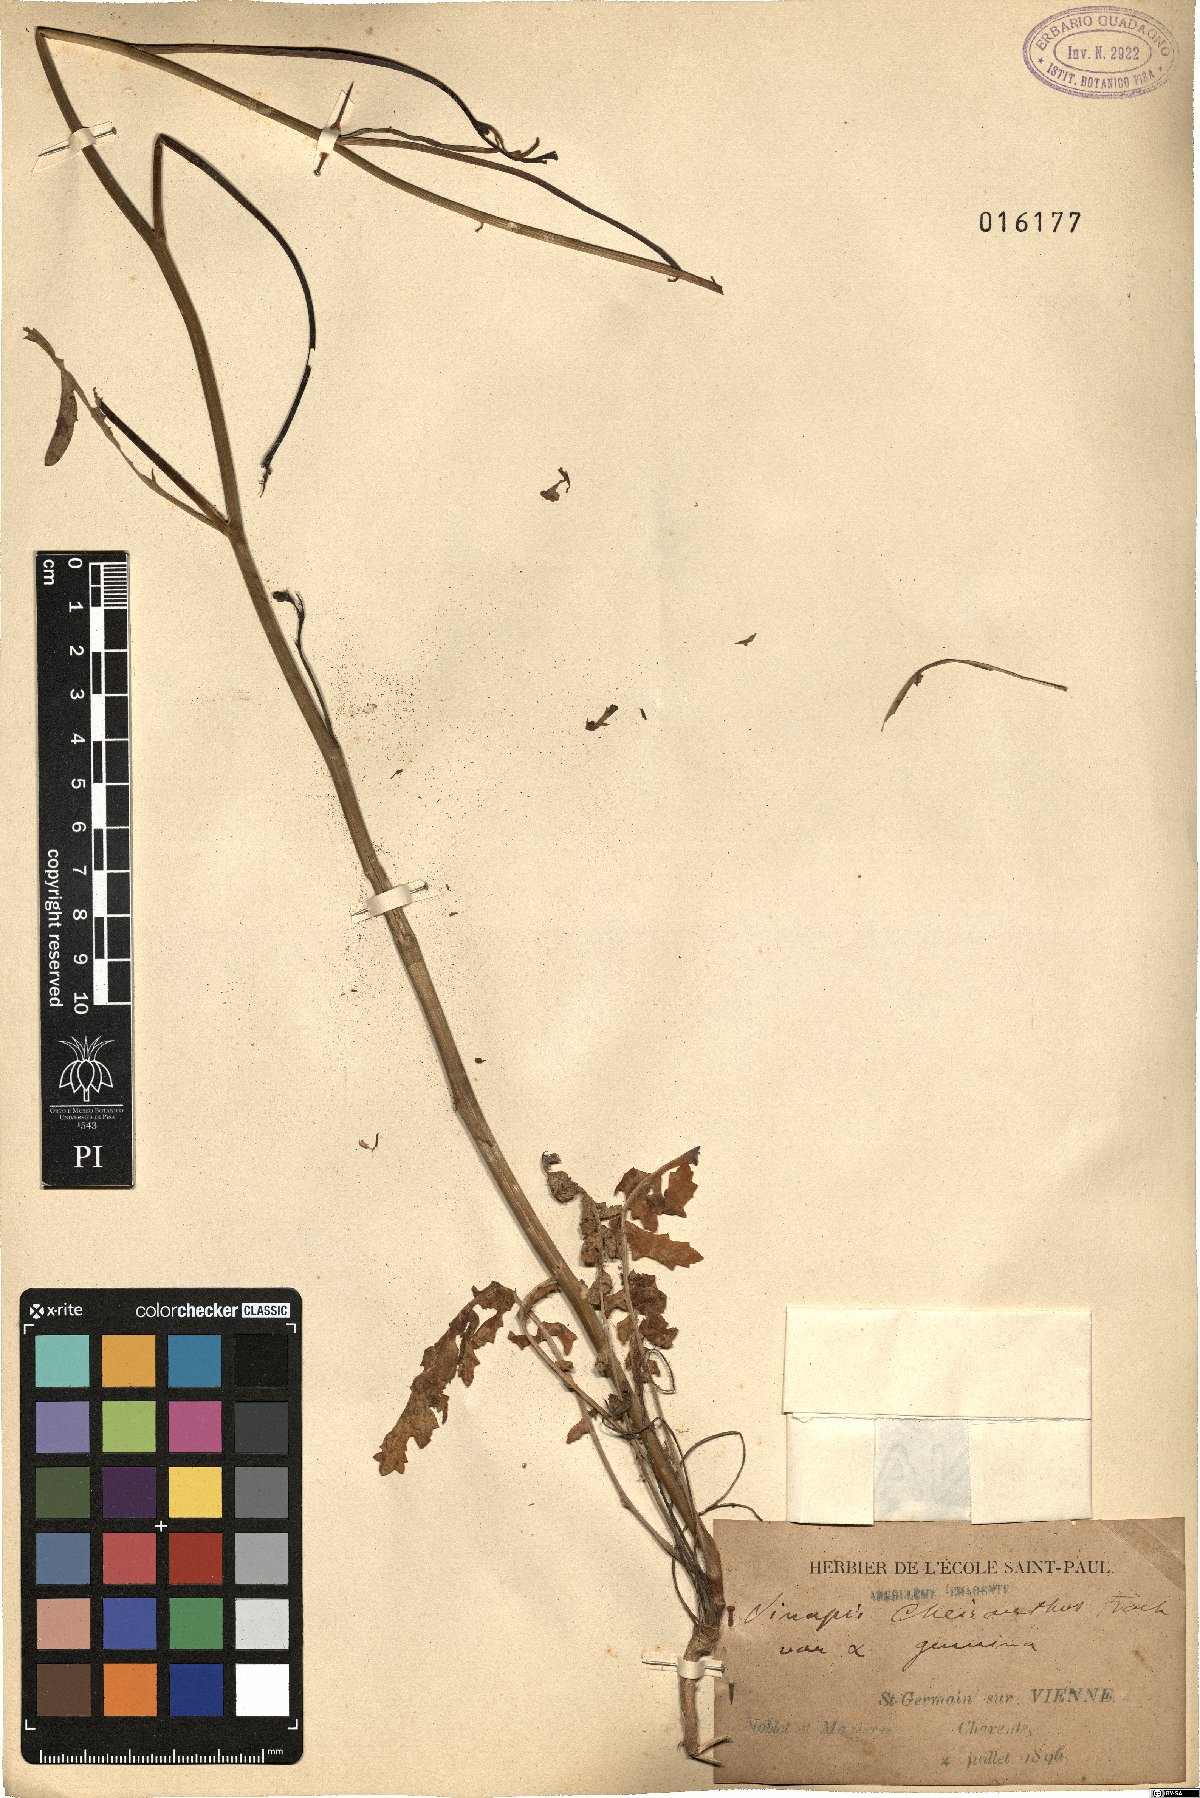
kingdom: Plantae
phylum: Tracheophyta
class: Magnoliopsida
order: Brassicales
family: Brassicaceae
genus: Coincya
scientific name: Coincya monensis
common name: Star-mustard
